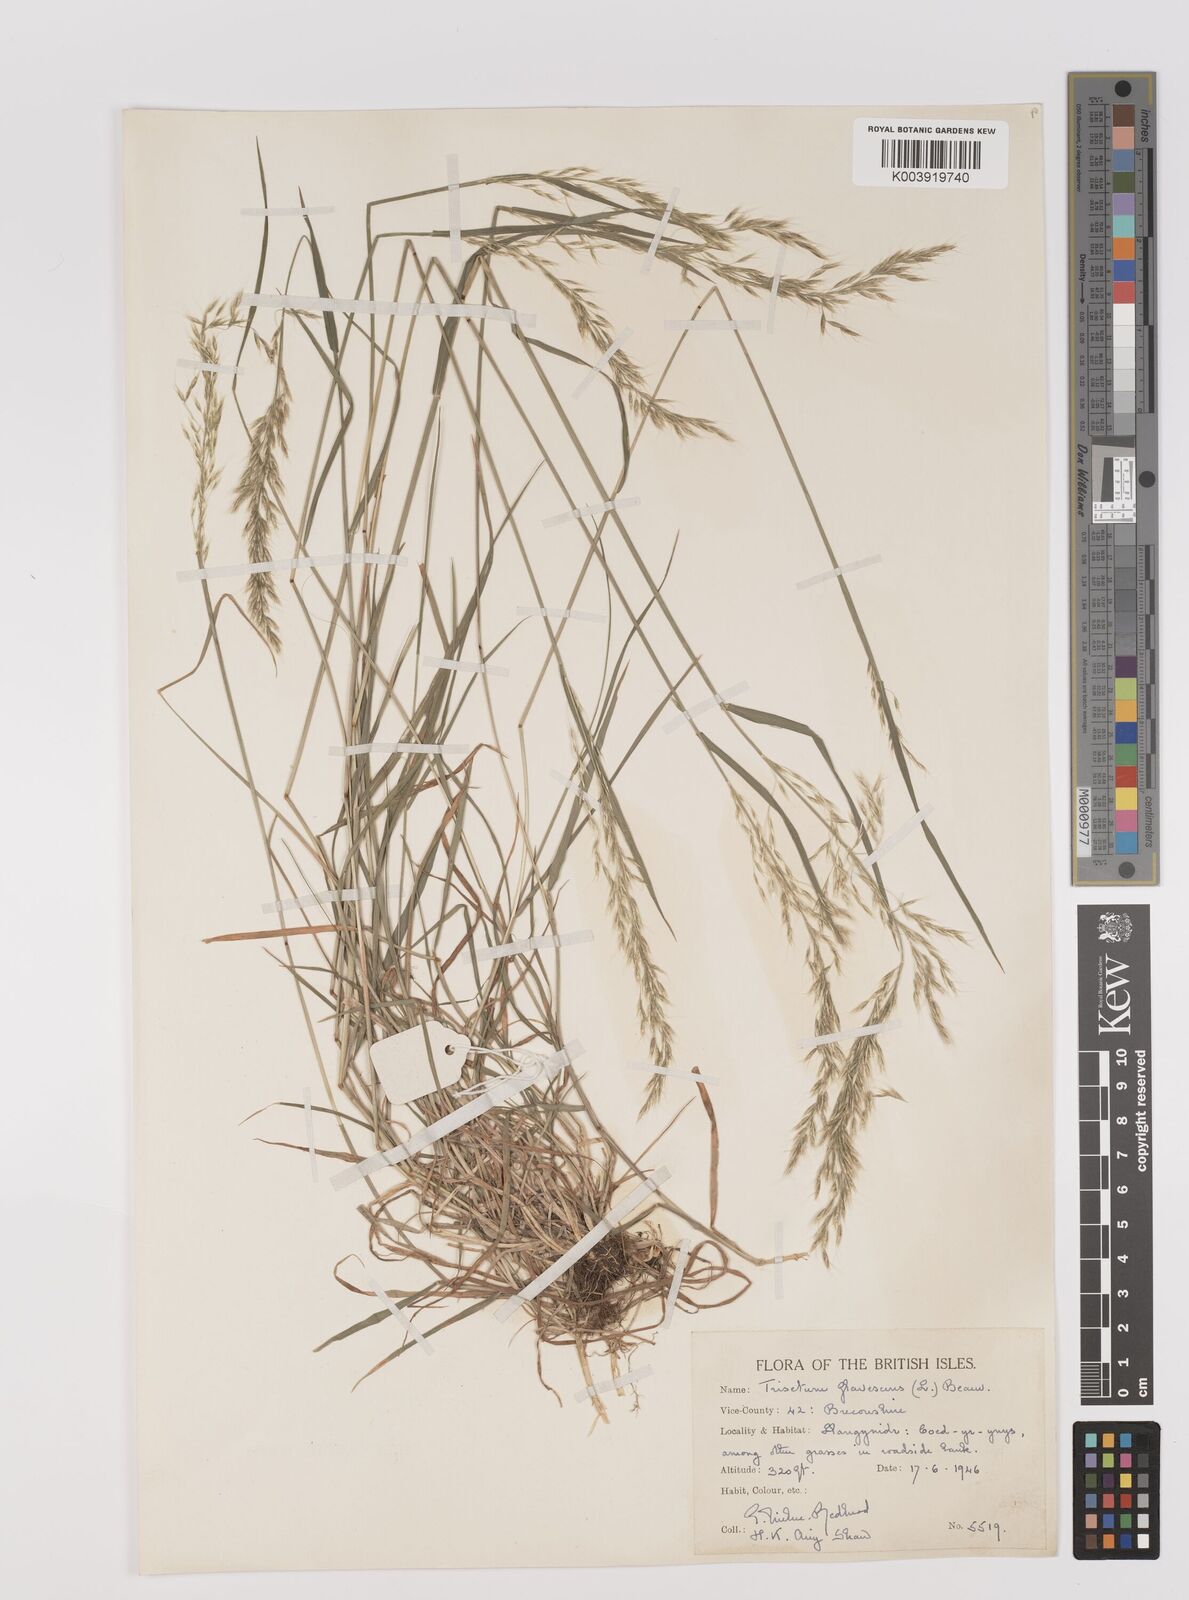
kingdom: Plantae
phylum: Tracheophyta
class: Liliopsida
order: Poales
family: Poaceae
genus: Trisetum
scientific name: Trisetum flavescens
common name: Yellow oat-grass
